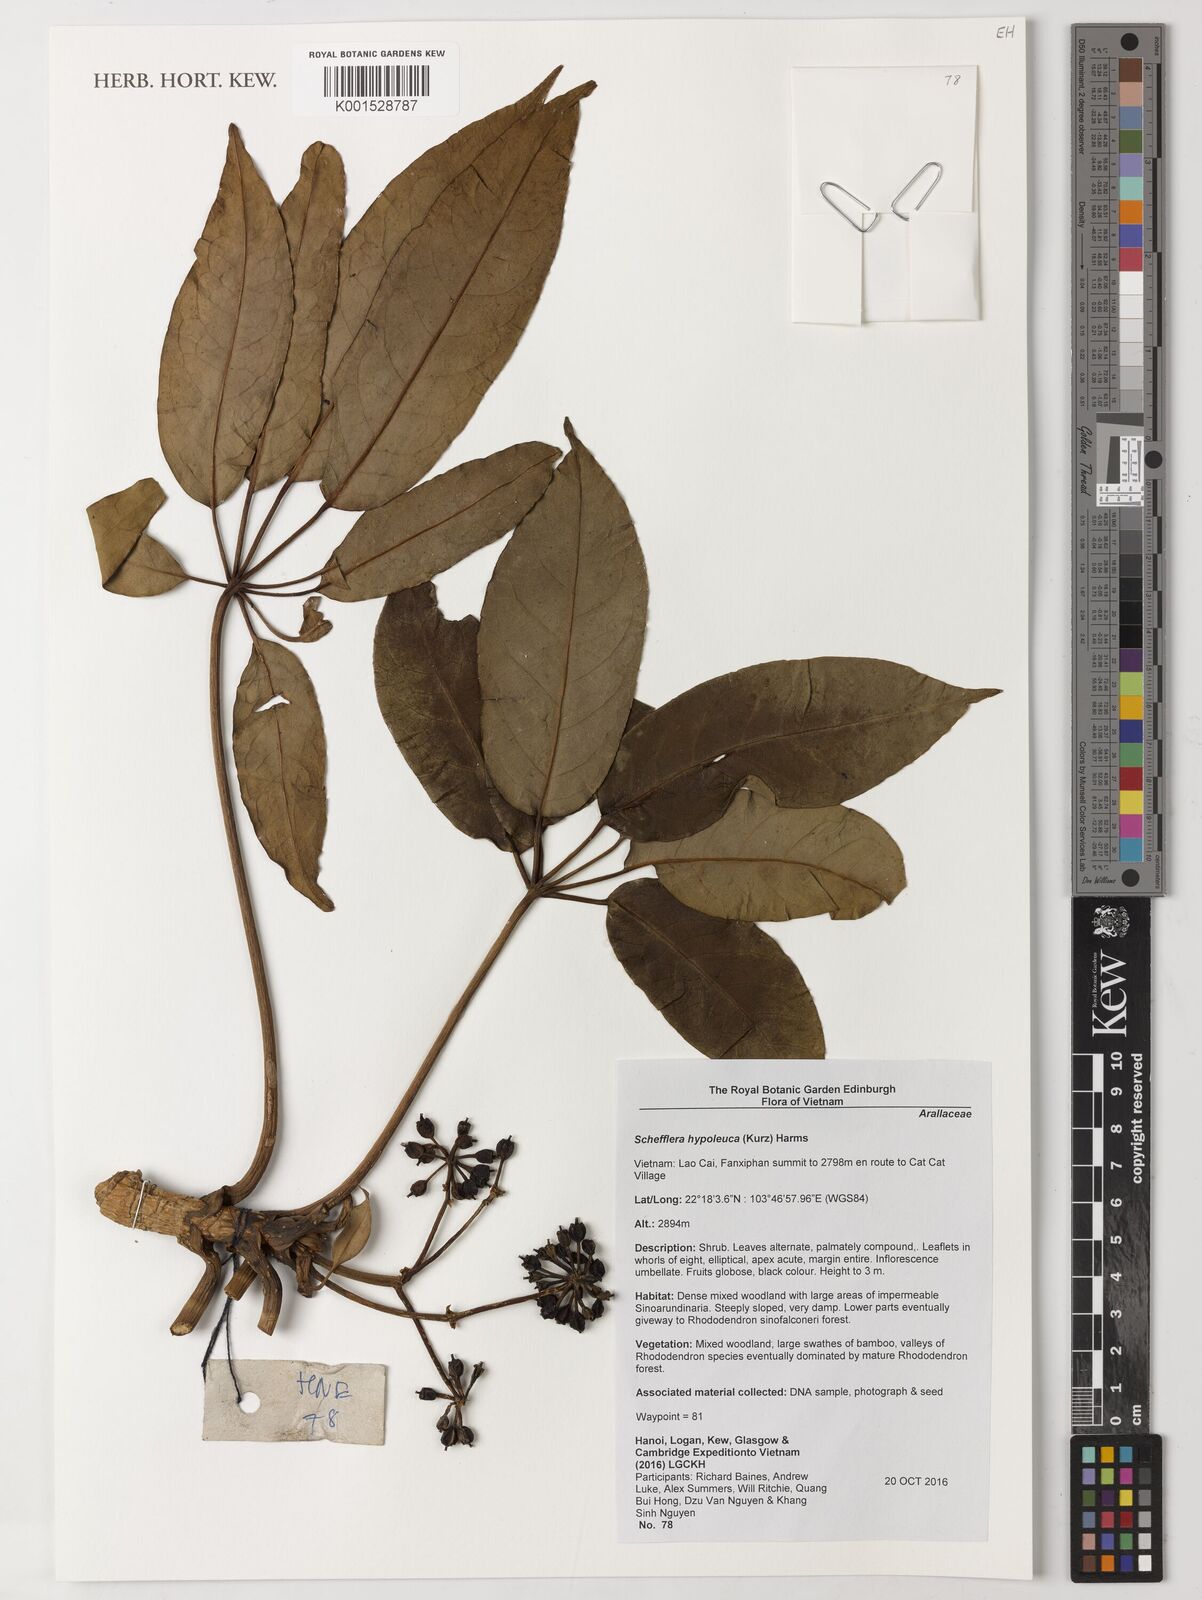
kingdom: Plantae
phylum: Tracheophyta
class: Magnoliopsida
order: Apiales
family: Araliaceae
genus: Heptapleurum
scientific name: Heptapleurum hypoleucum
